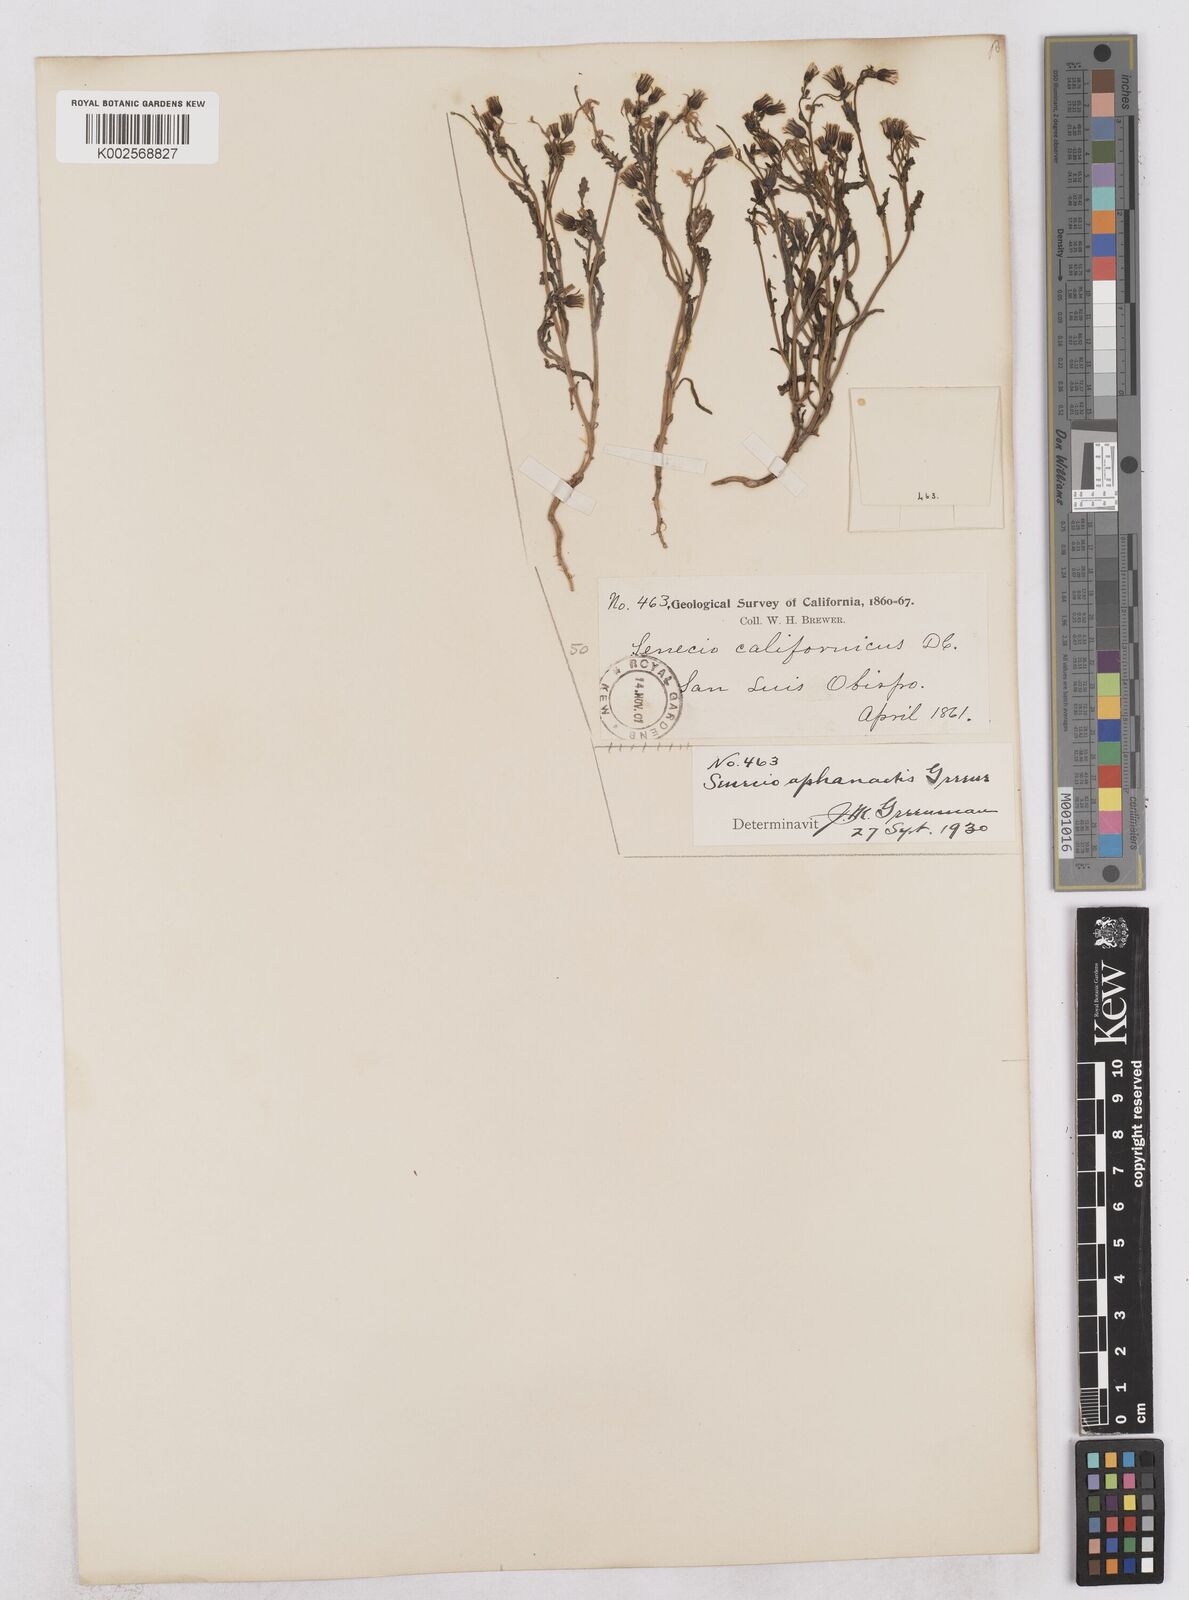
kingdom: Plantae
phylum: Tracheophyta
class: Magnoliopsida
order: Asterales
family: Asteraceae
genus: Senecio
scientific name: Senecio aphanactis
